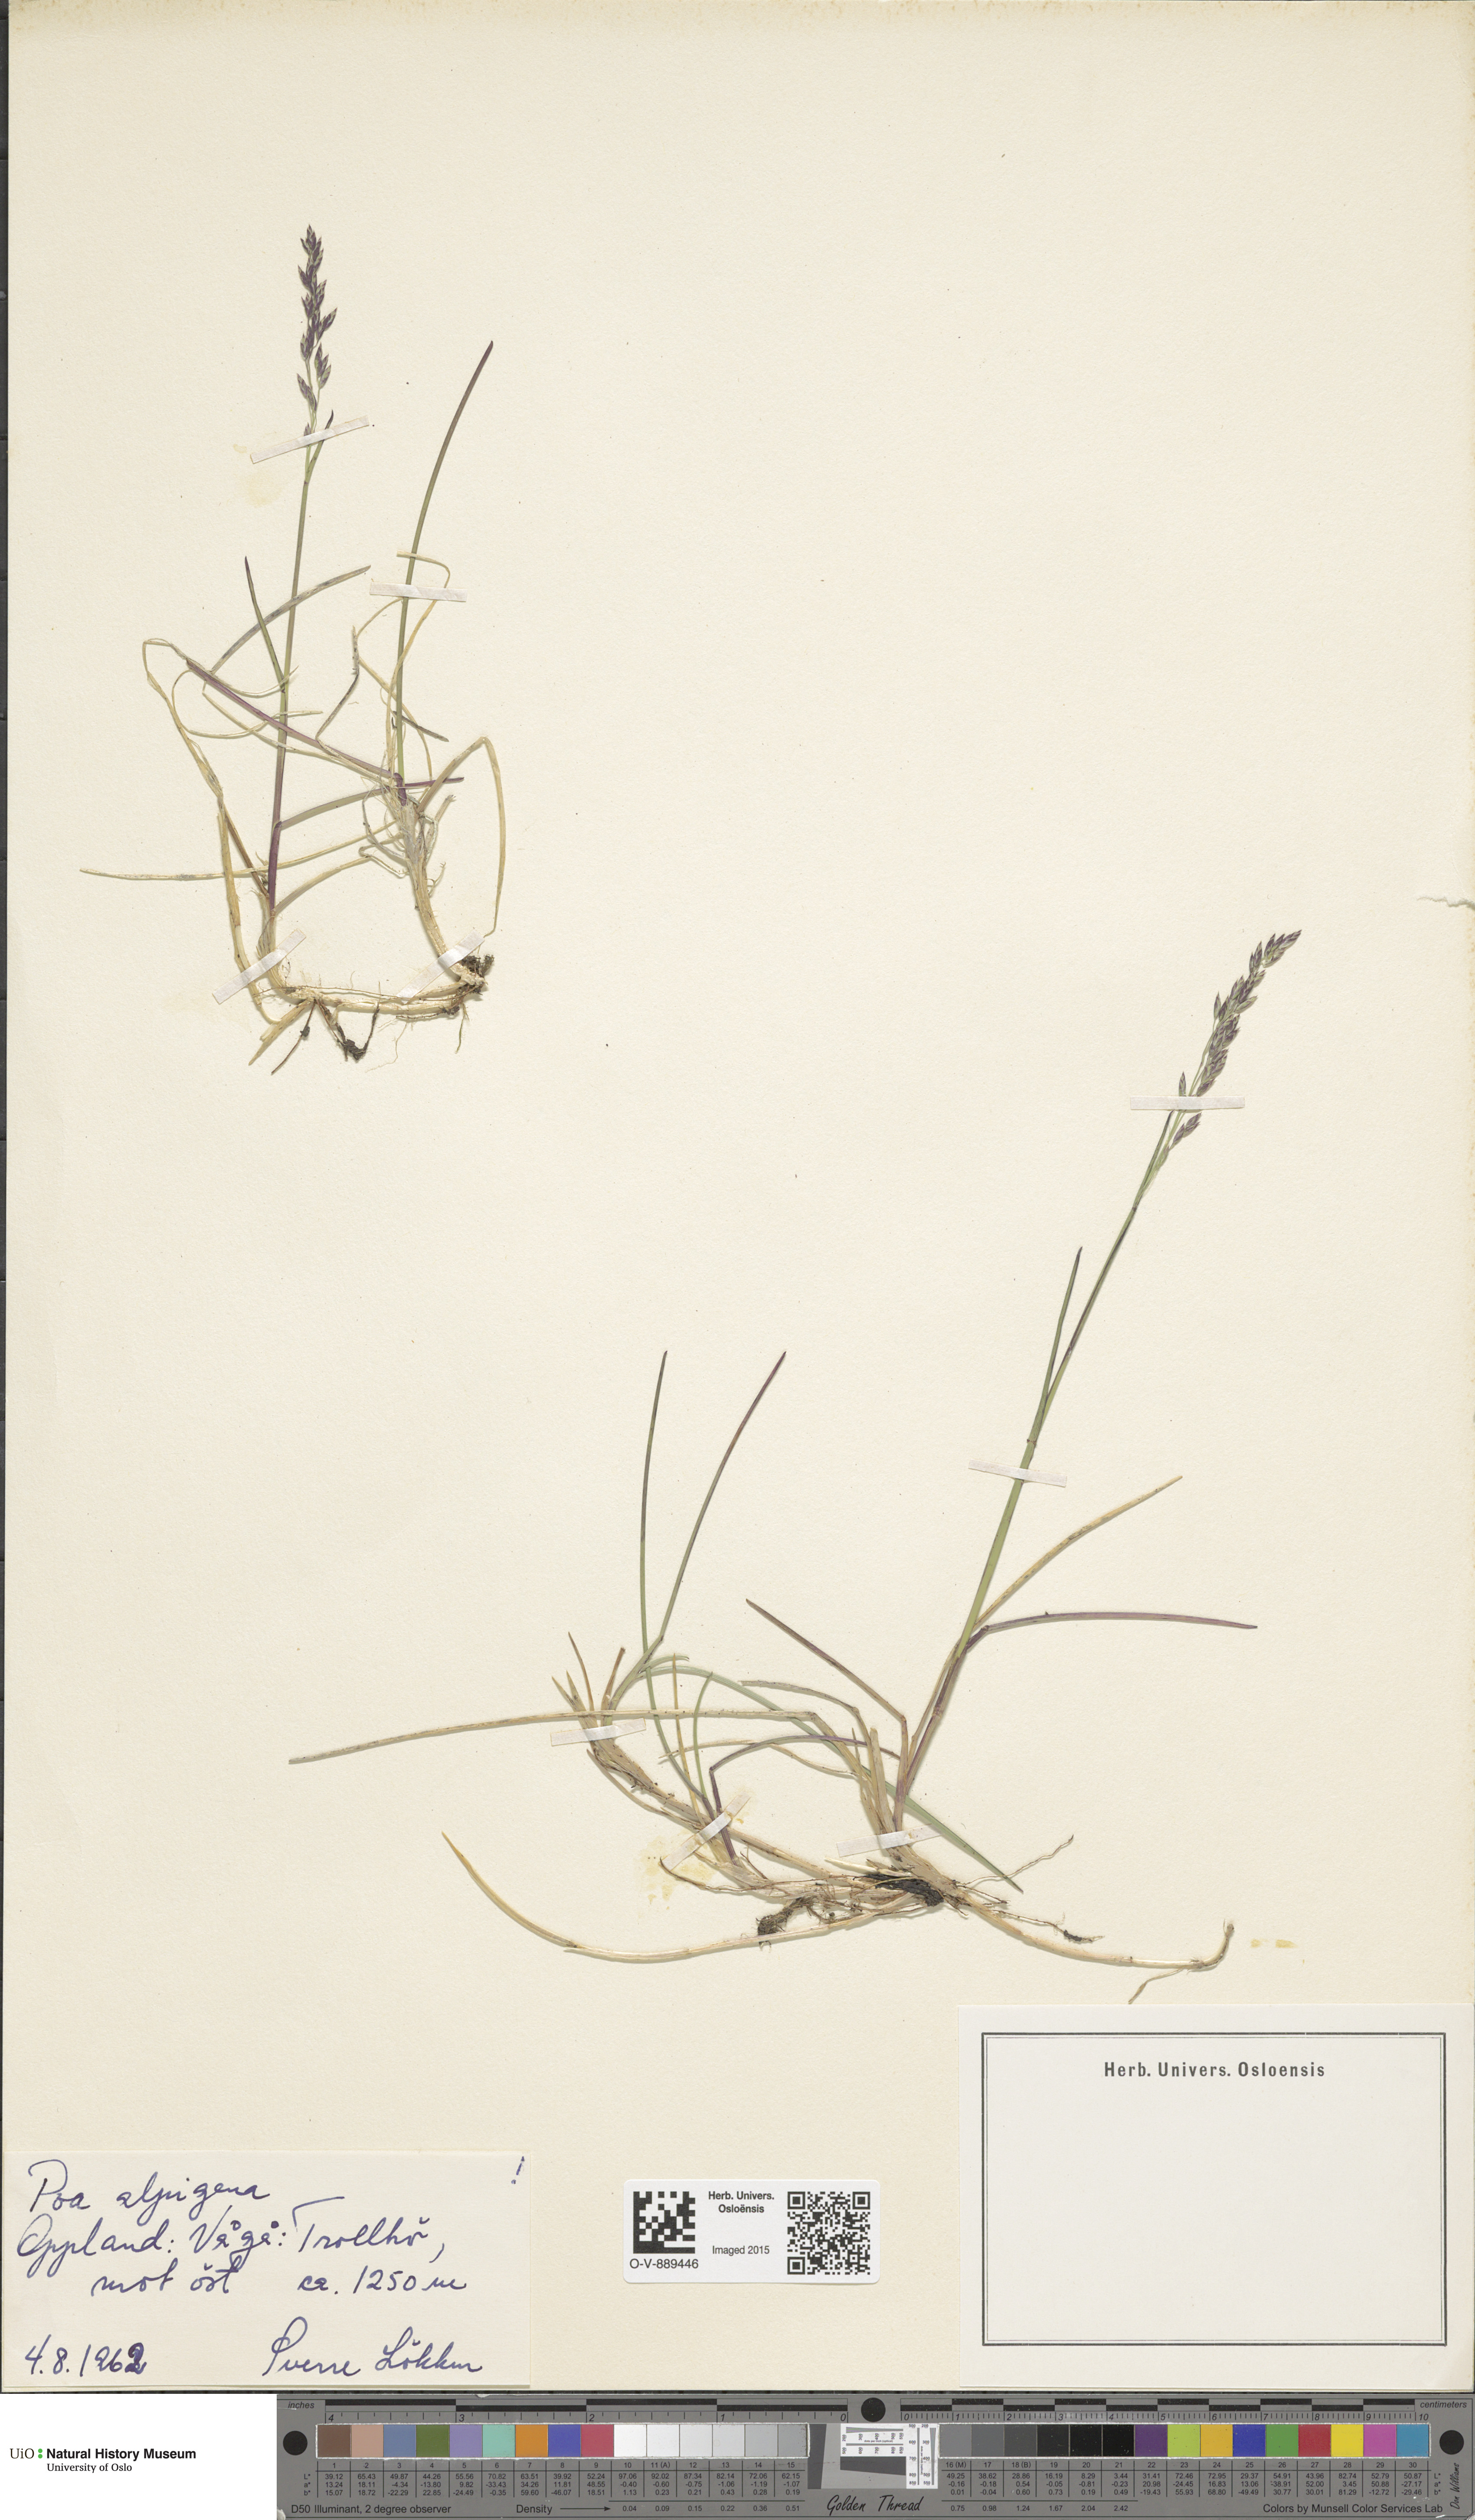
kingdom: Plantae
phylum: Tracheophyta
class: Liliopsida
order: Poales
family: Poaceae
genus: Poa
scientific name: Poa alpigena
